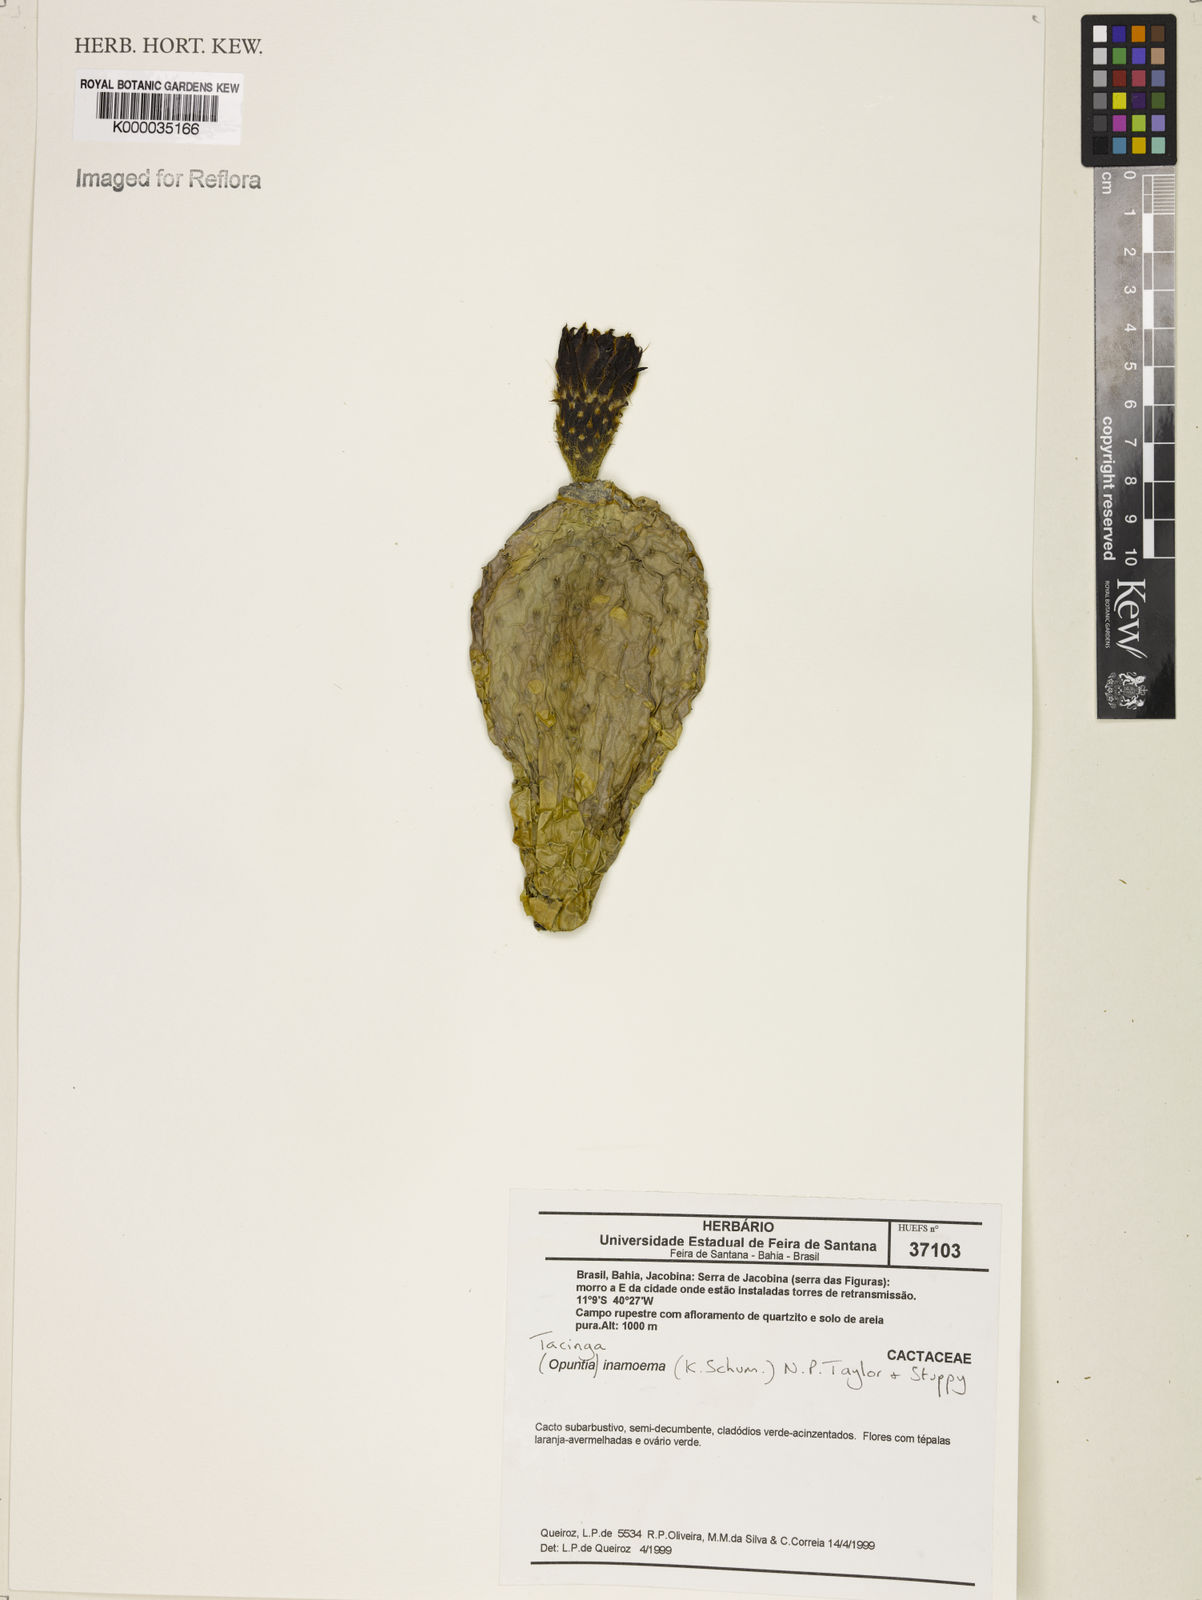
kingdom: Plantae
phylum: Tracheophyta
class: Magnoliopsida
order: Caryophyllales
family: Cactaceae
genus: Tacinga
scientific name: Tacinga inamoena
